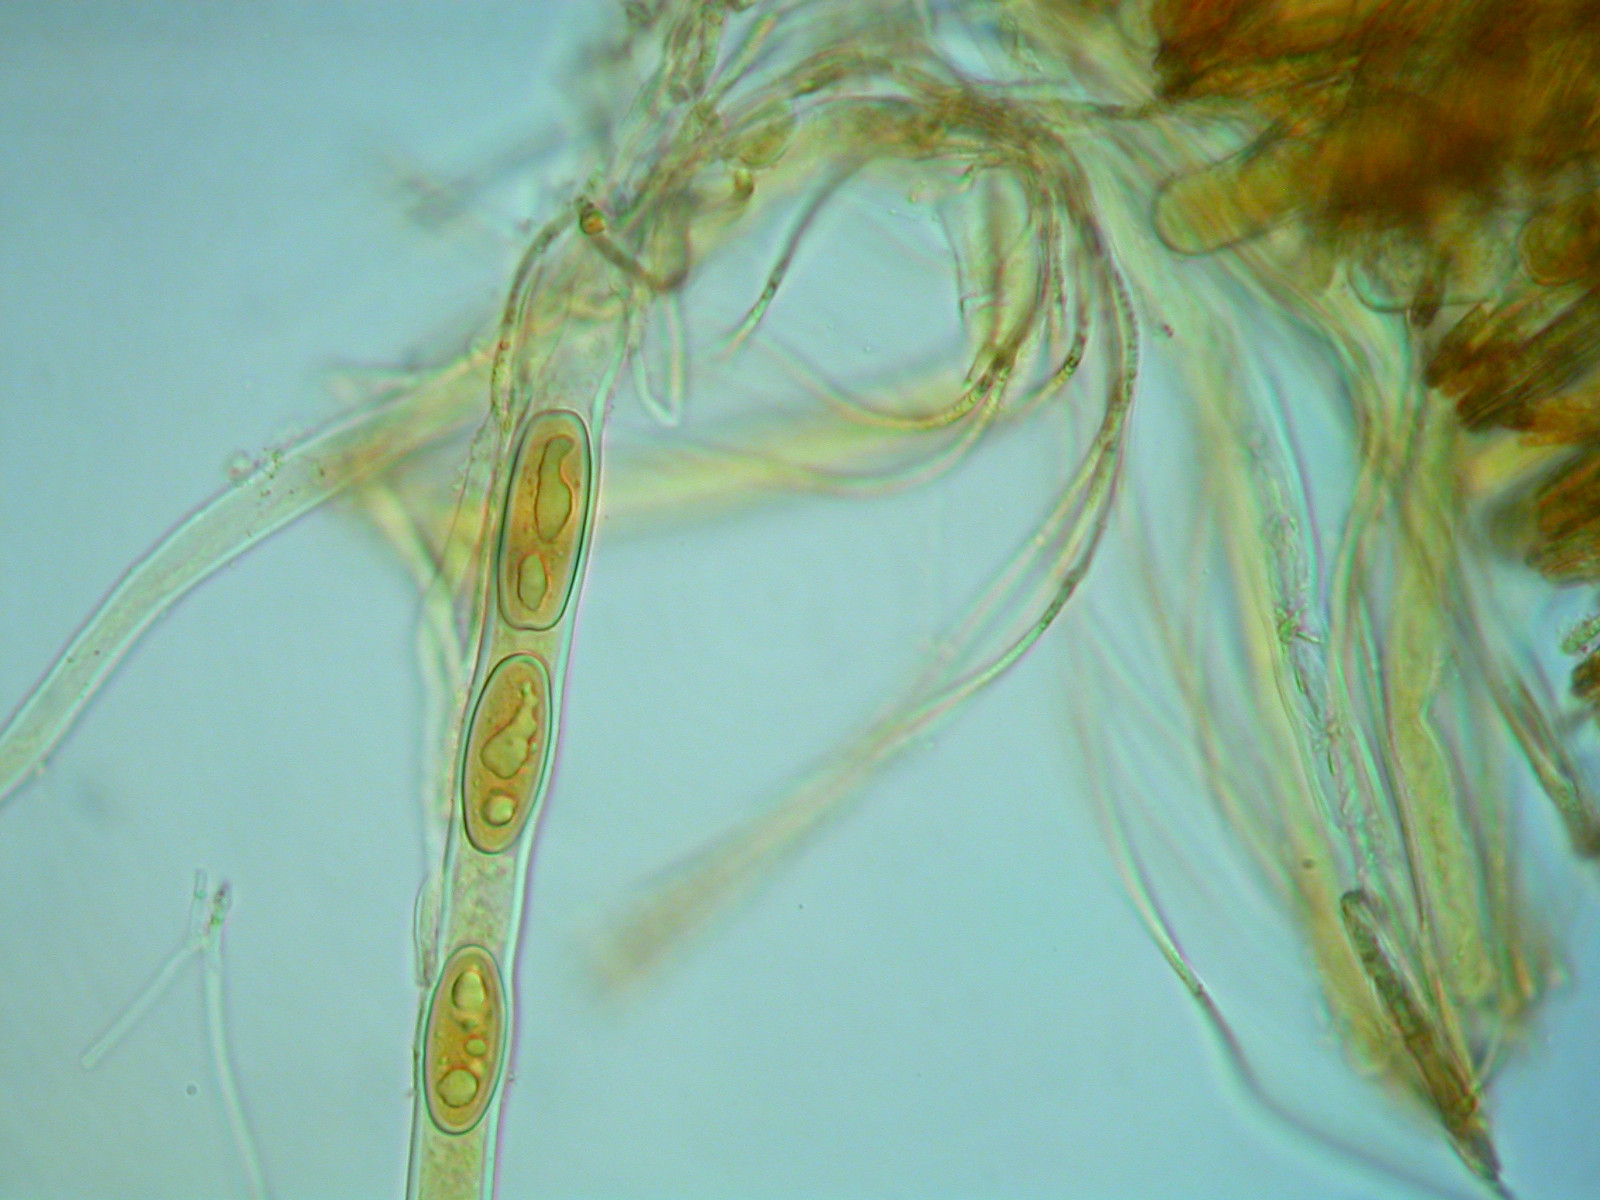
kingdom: Fungi
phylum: Ascomycota
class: Pezizomycetes
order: Pezizales
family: Sarcoscyphaceae
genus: Sarcoscypha
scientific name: Sarcoscypha austriaca
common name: krølhåret pragtbæger
